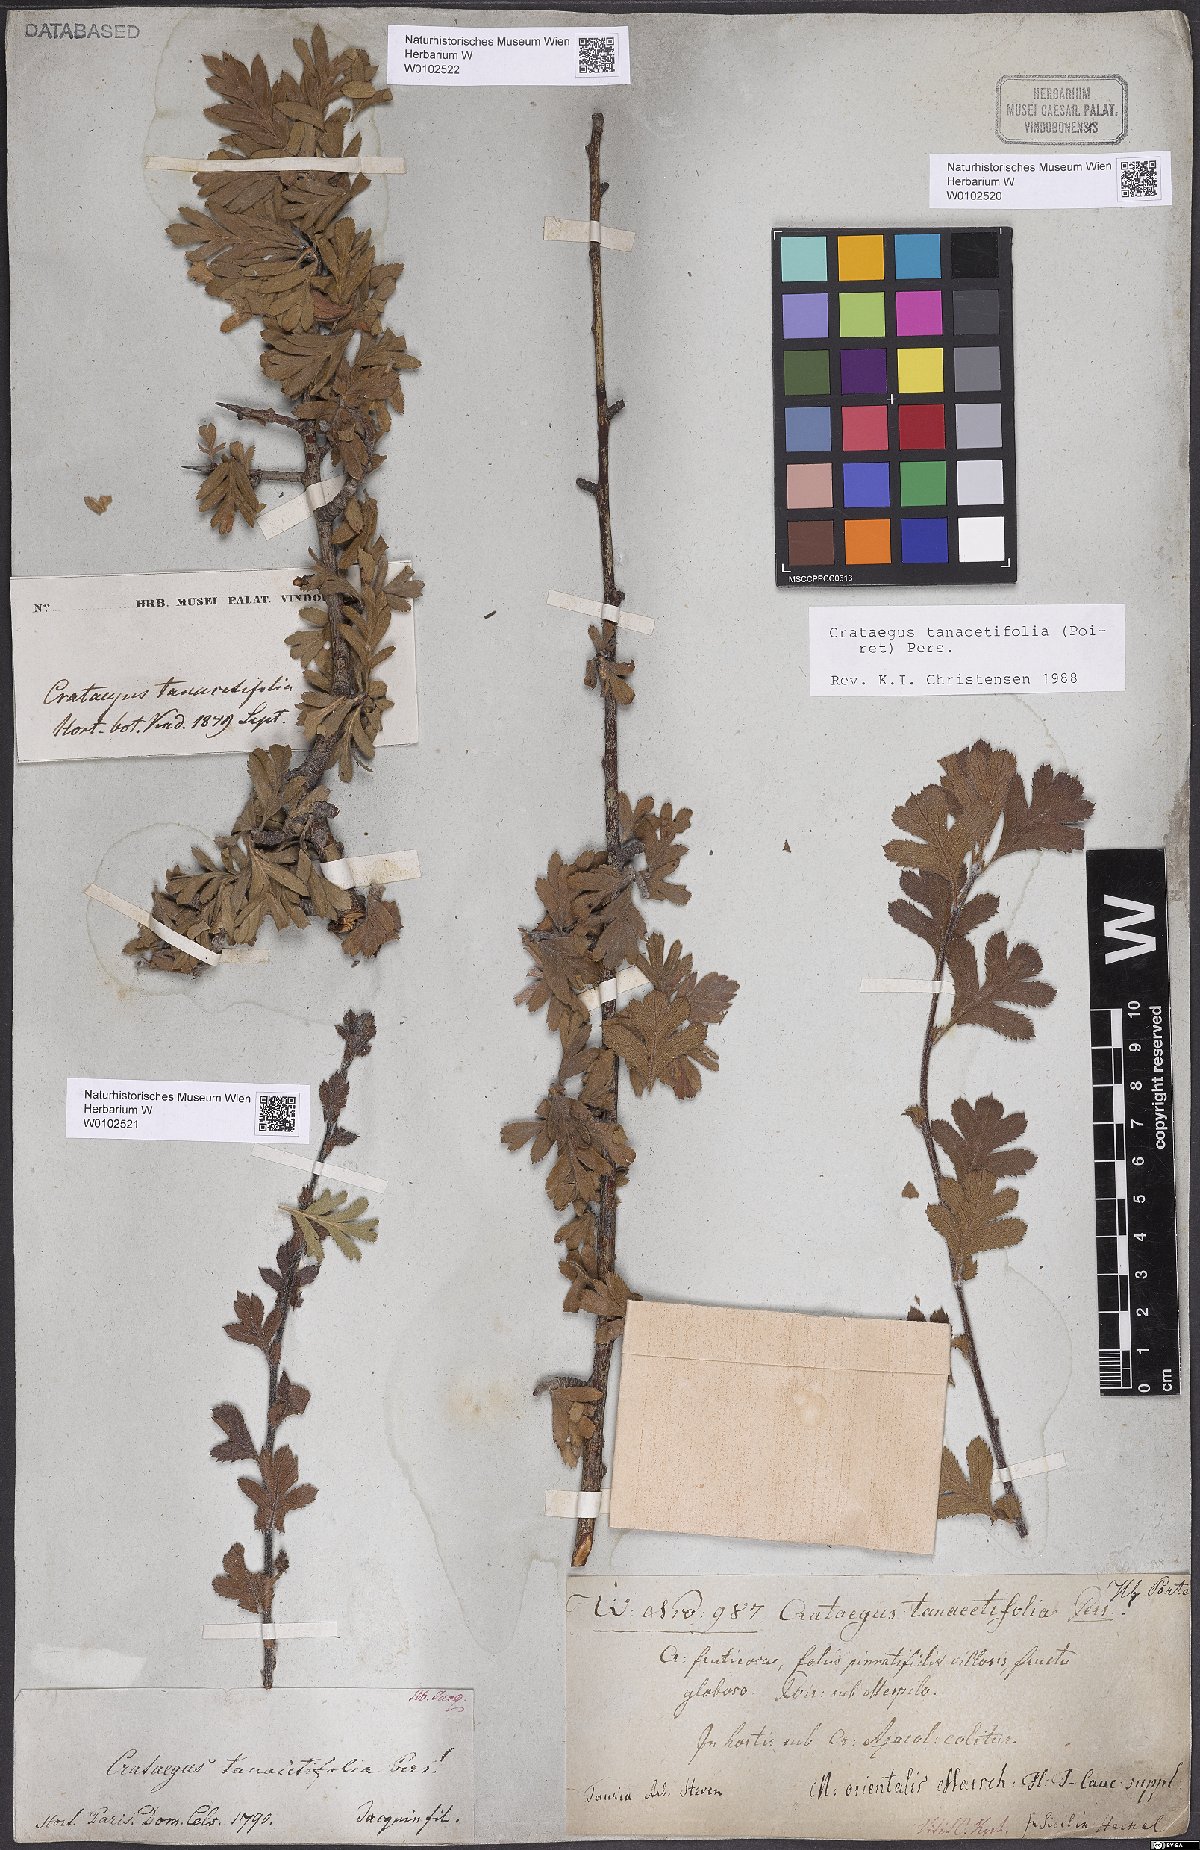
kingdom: Plantae
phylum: Tracheophyta
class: Magnoliopsida
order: Rosales
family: Rosaceae
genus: Crataegus
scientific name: Crataegus tanacetifolia
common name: Tansy-leaved thorn
